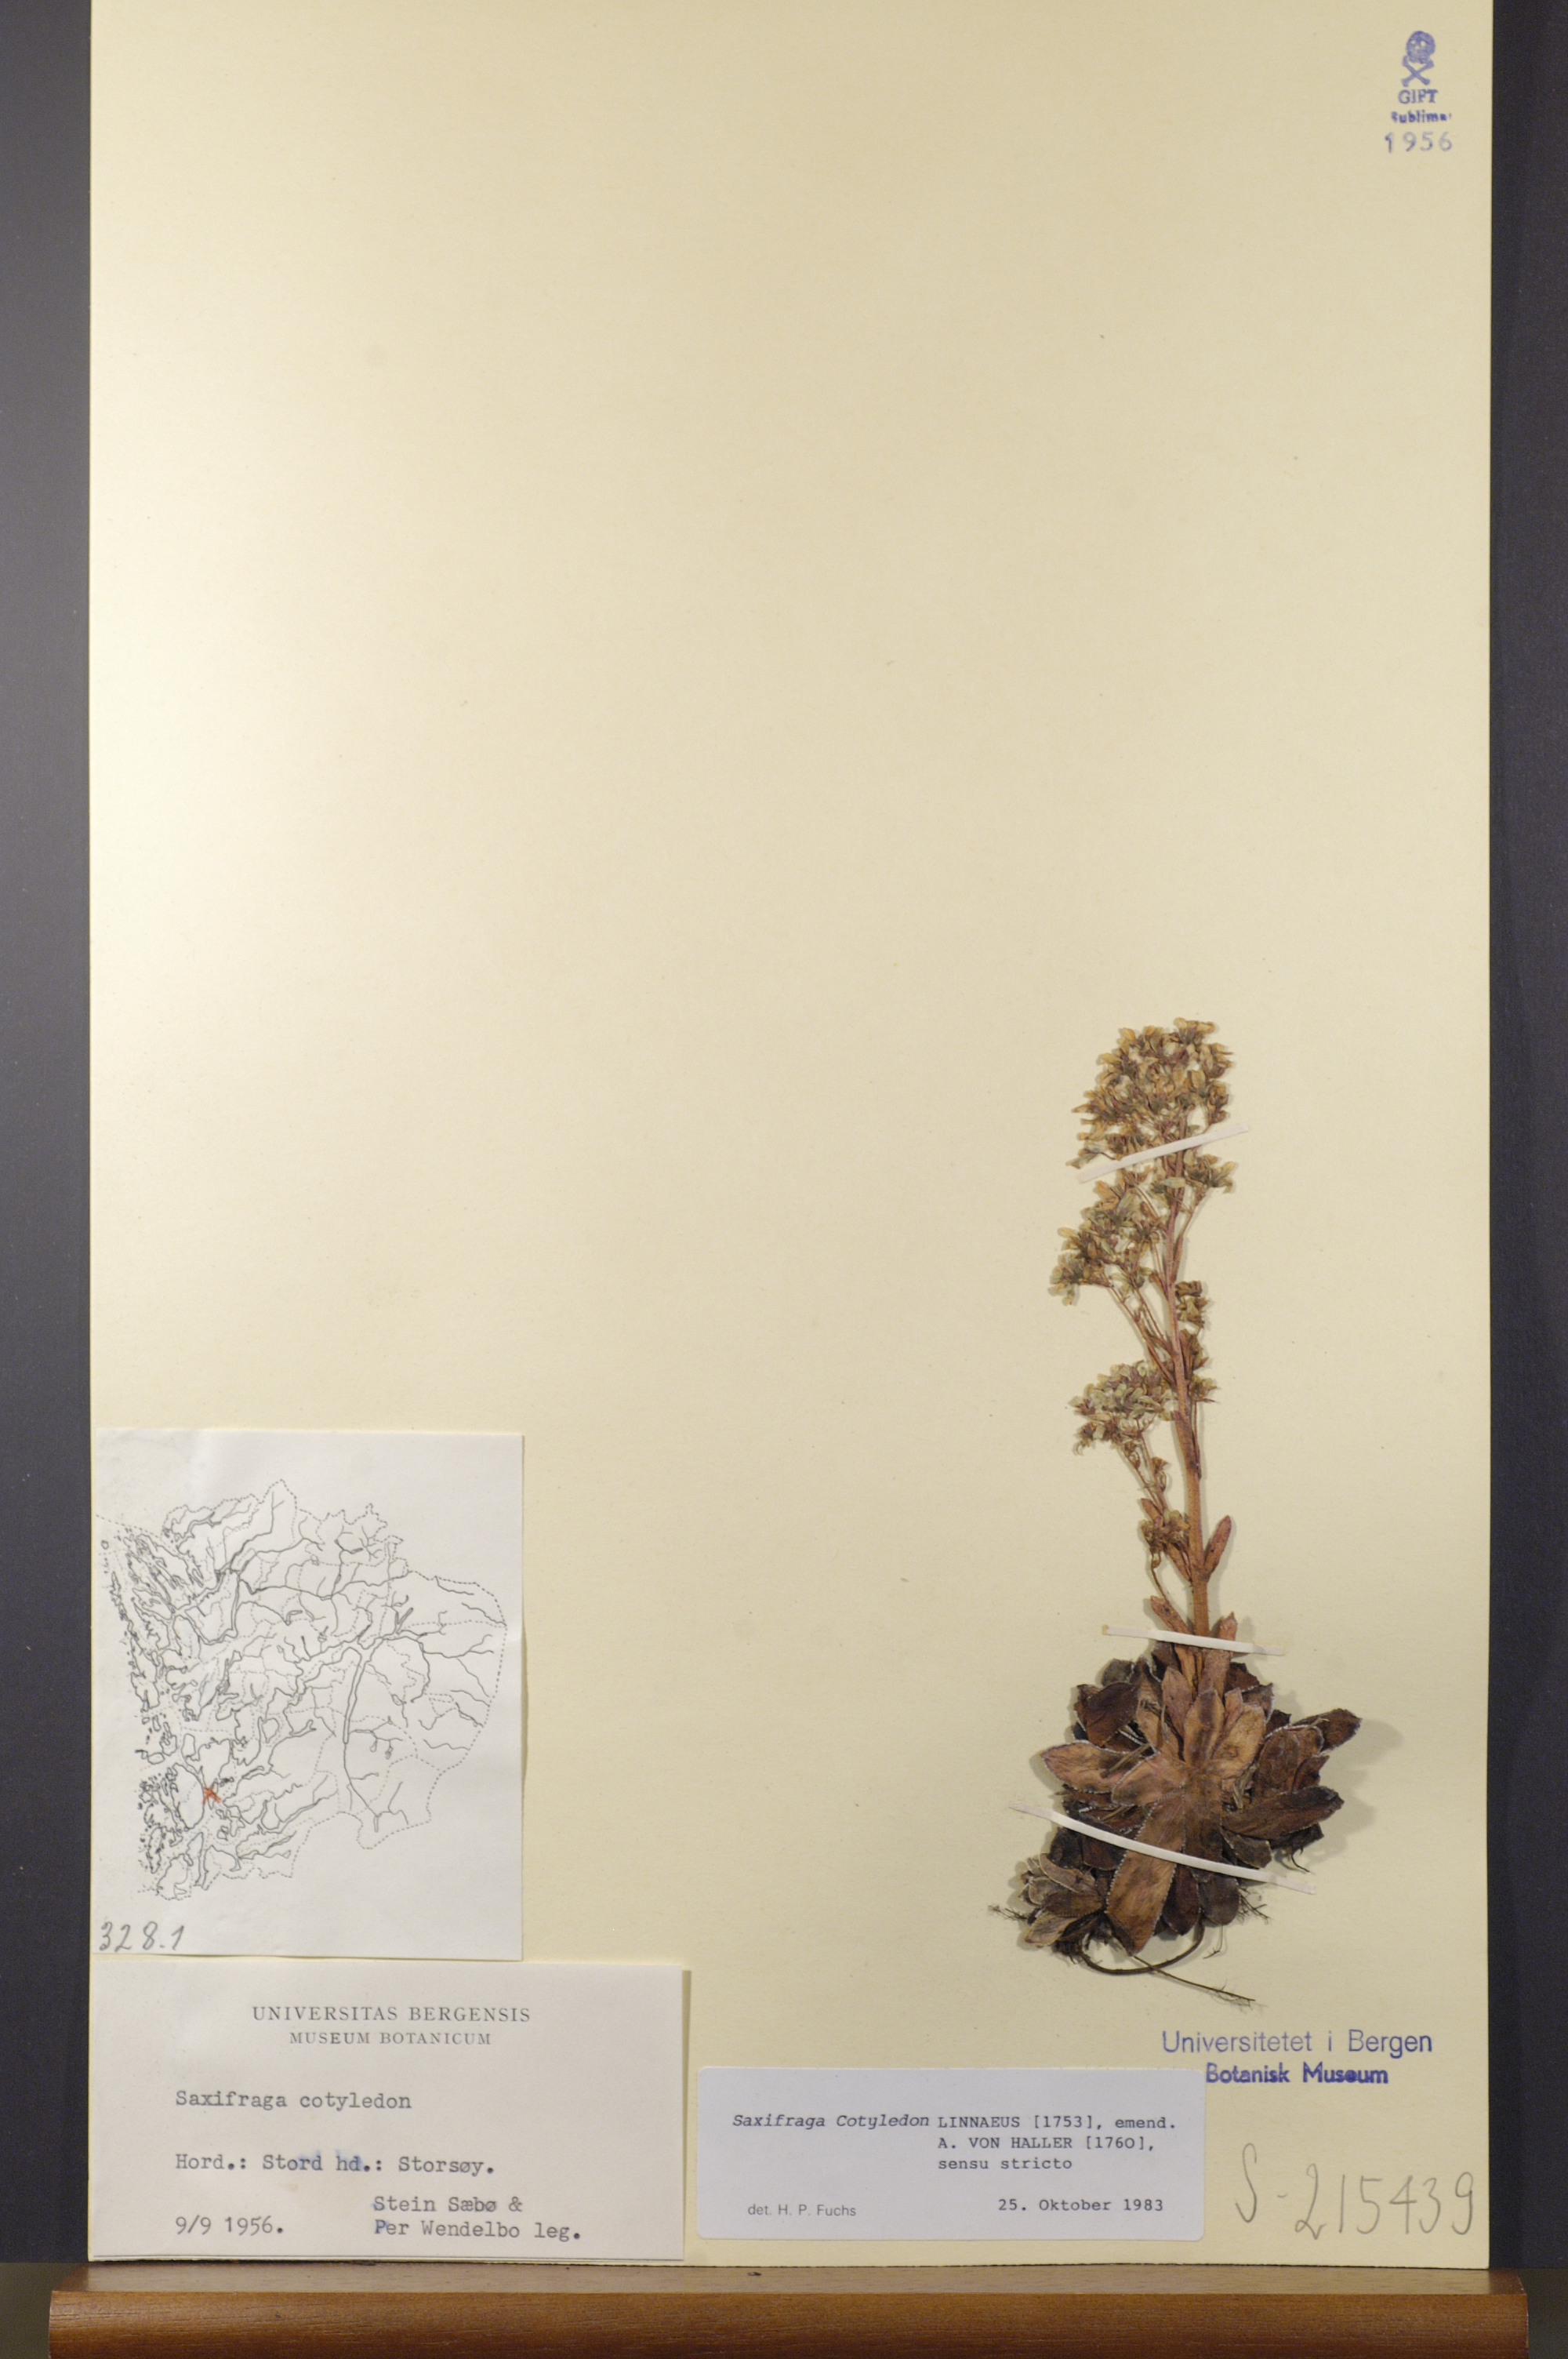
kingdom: Plantae
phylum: Tracheophyta
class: Magnoliopsida
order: Saxifragales
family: Saxifragaceae
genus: Saxifraga
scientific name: Saxifraga cotyledon
